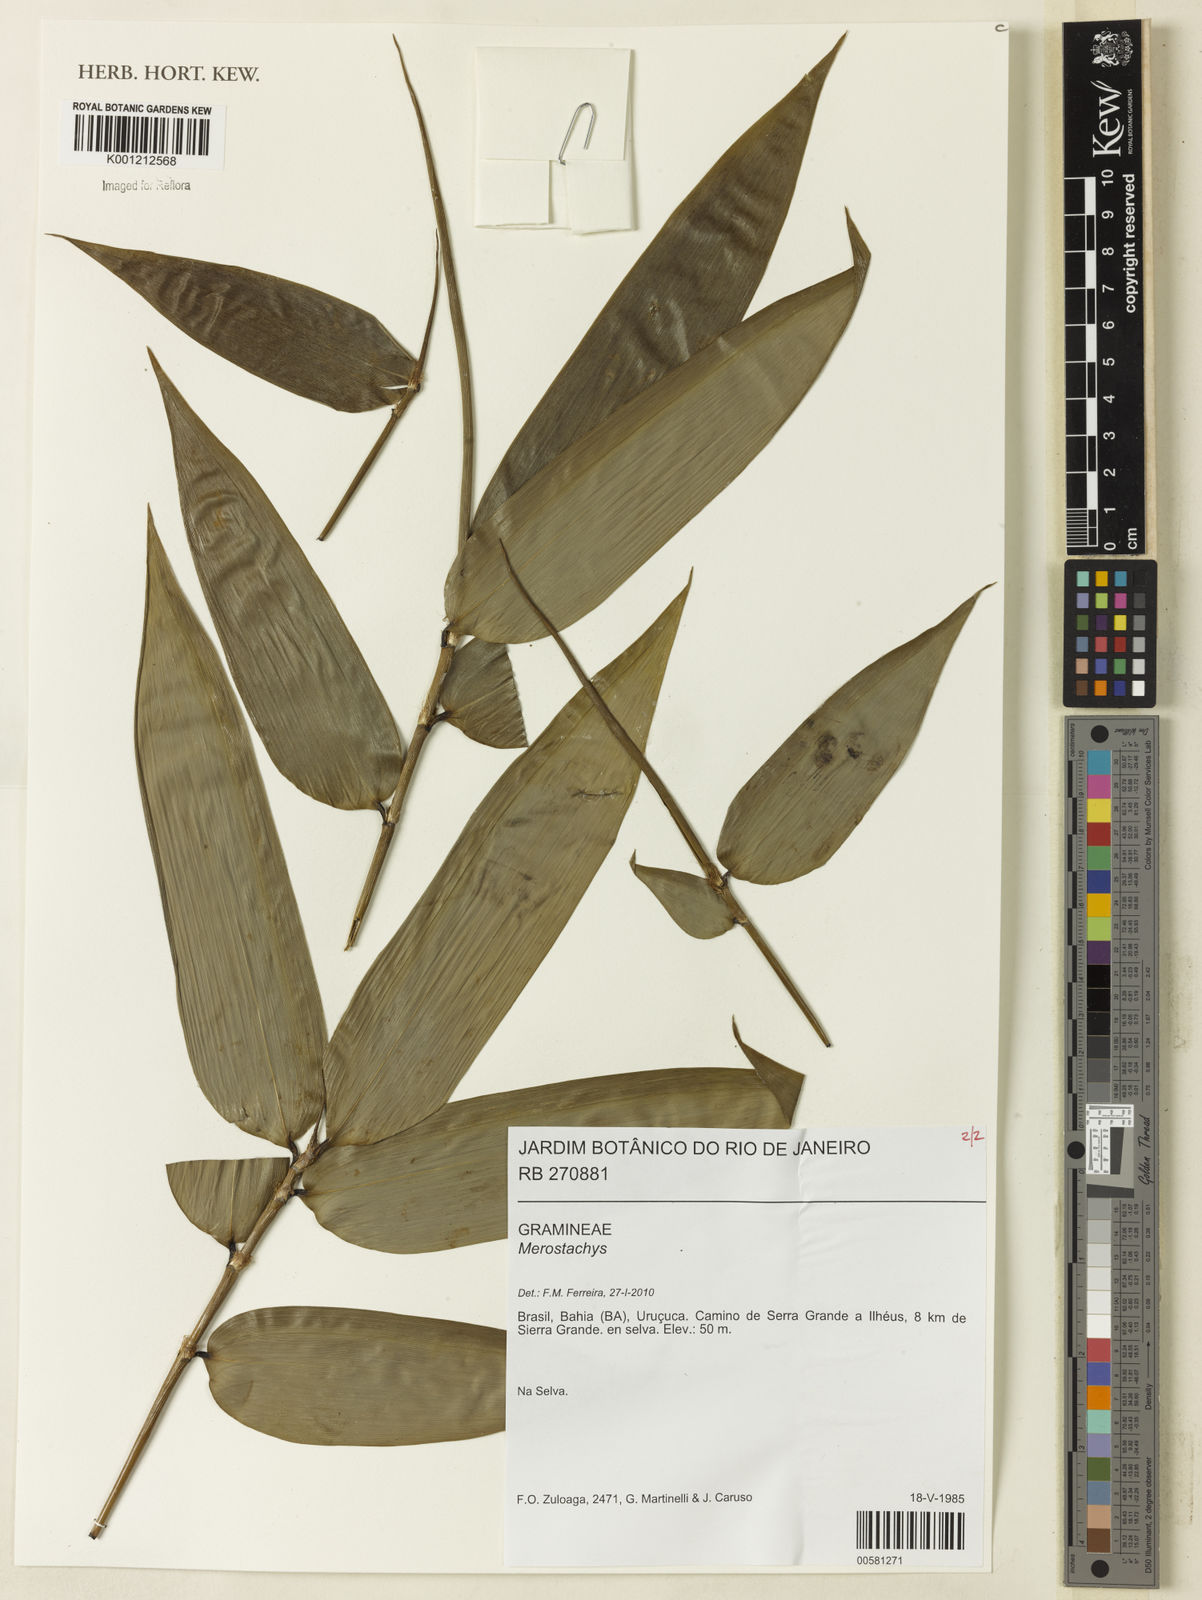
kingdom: Plantae
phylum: Tracheophyta
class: Liliopsida
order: Poales
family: Poaceae
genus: Merostachys
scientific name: Merostachys
